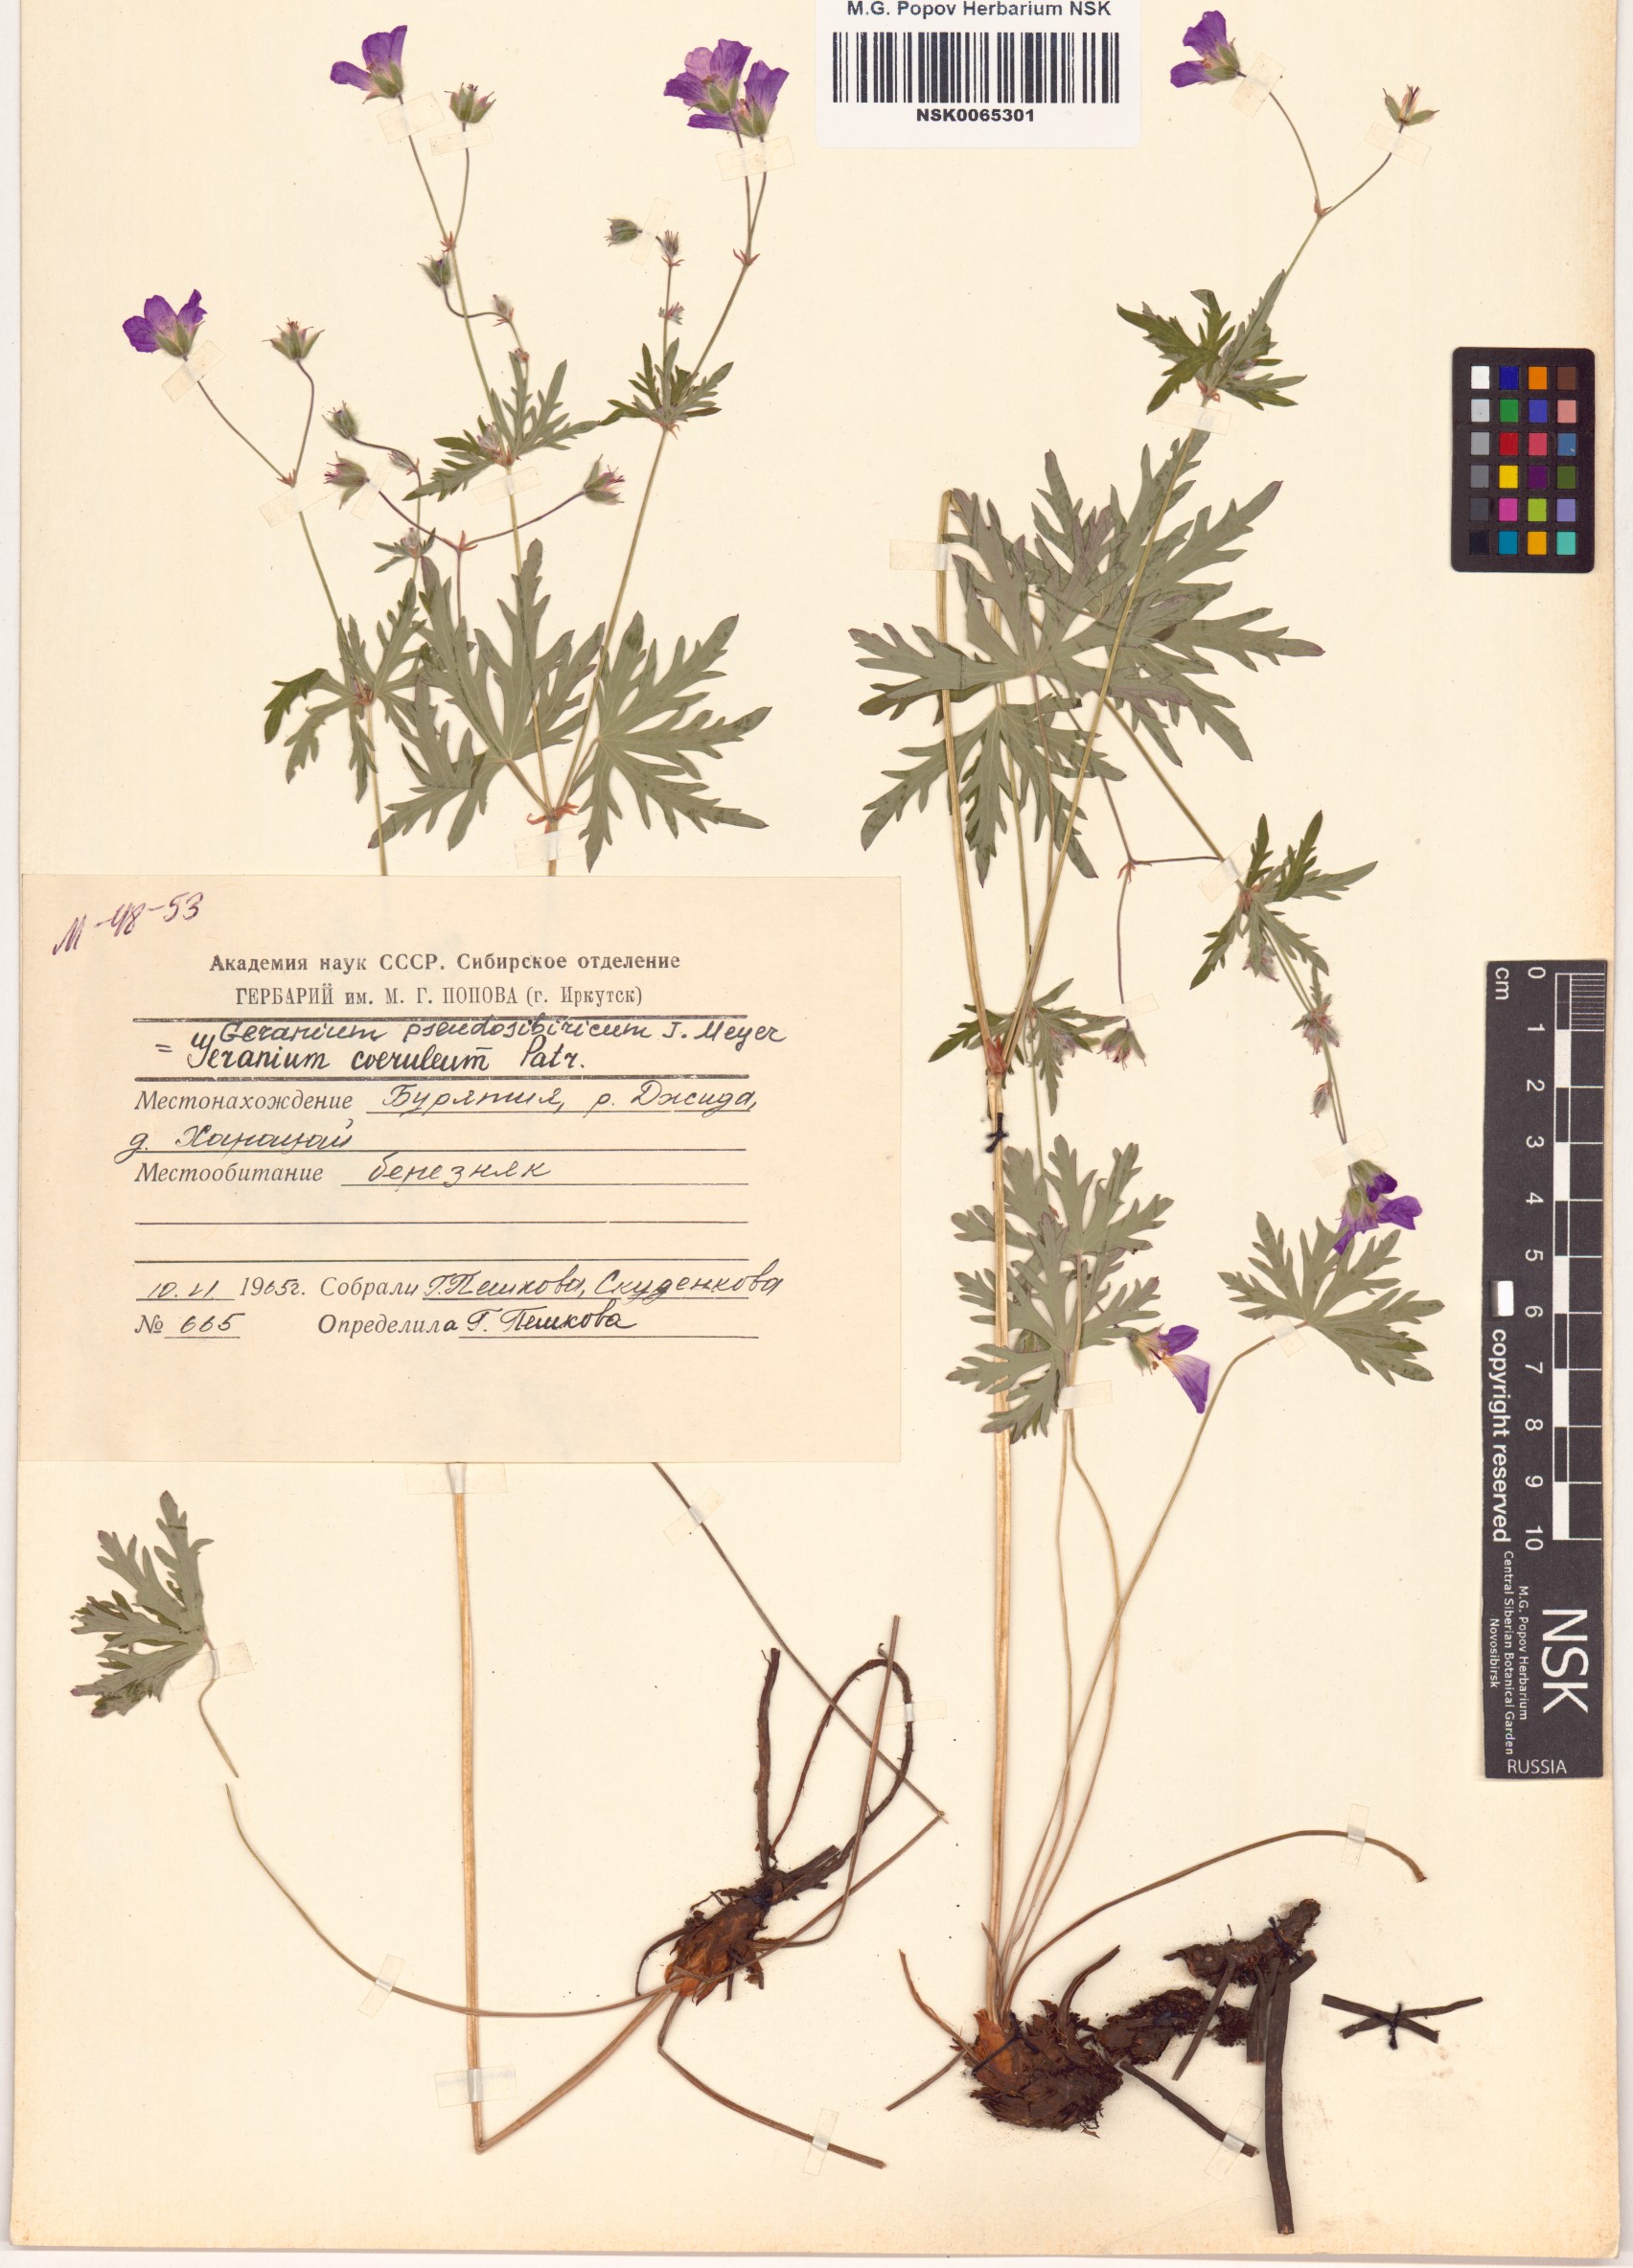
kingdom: Plantae
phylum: Tracheophyta
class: Magnoliopsida
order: Geraniales
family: Geraniaceae
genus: Geranium
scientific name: Geranium pseudosibiricum
